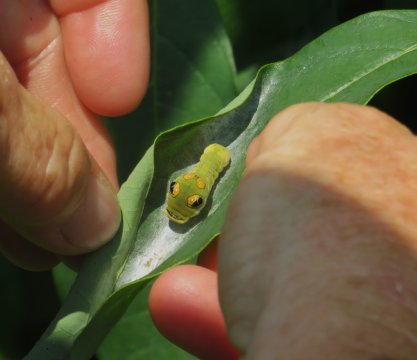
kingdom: Animalia
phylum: Arthropoda
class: Insecta
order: Lepidoptera
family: Papilionidae
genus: Pterourus
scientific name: Pterourus troilus
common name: Spicebush Swallowtail
